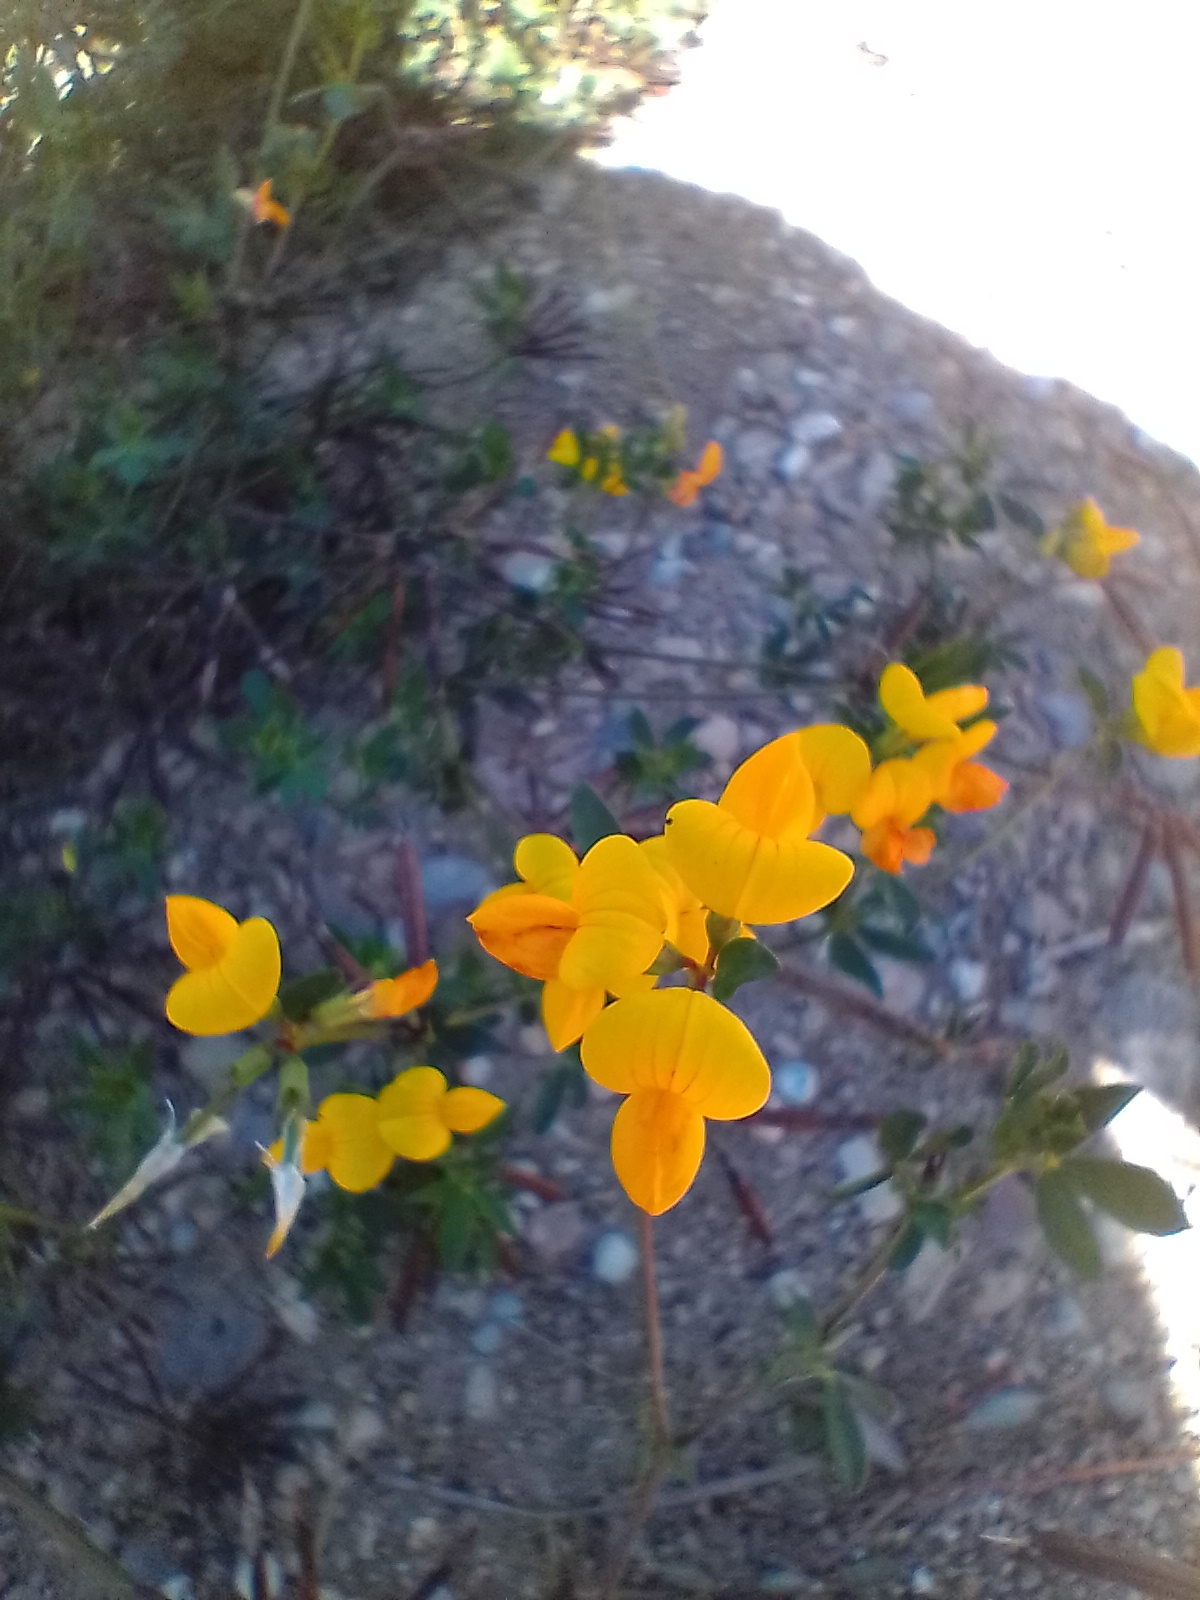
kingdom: Plantae
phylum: Tracheophyta
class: Magnoliopsida
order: Fabales
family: Fabaceae
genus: Lotus
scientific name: Lotus corniculatus
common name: Almindelig kællingetand
